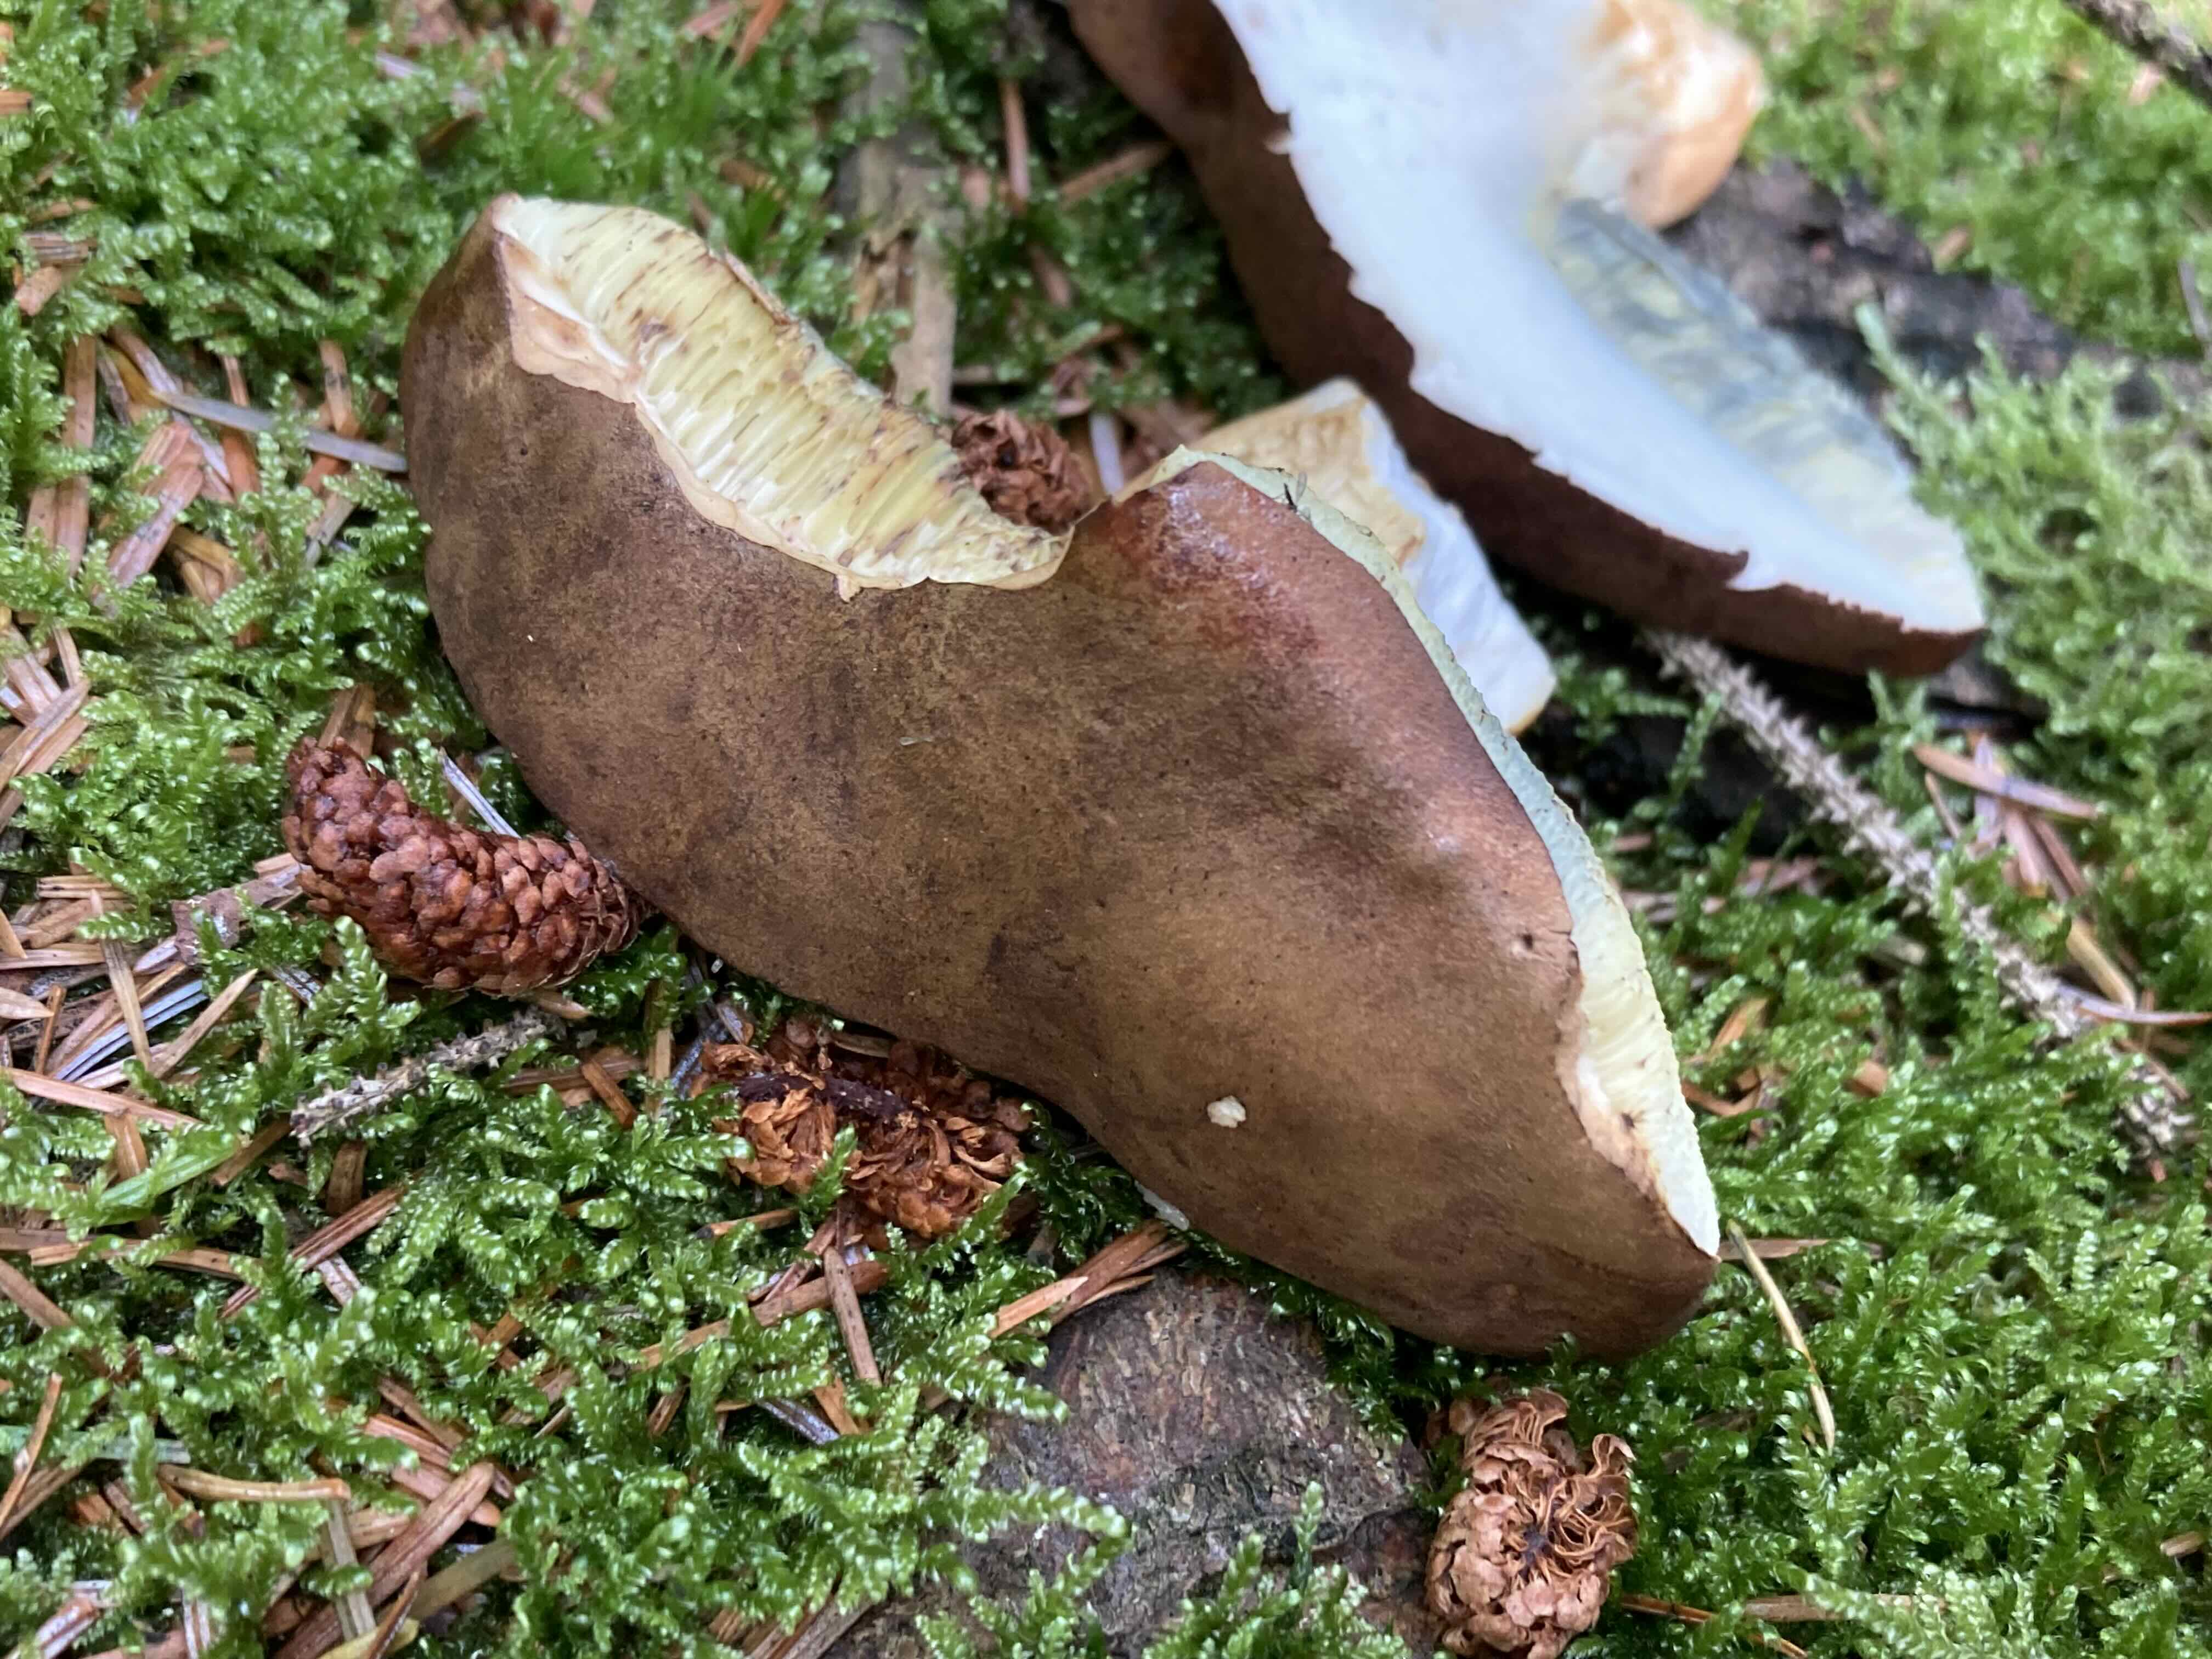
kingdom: Fungi
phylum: Basidiomycota
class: Agaricomycetes
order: Boletales
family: Boletaceae
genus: Imleria
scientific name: Imleria badia
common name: brunstokket rørhat
